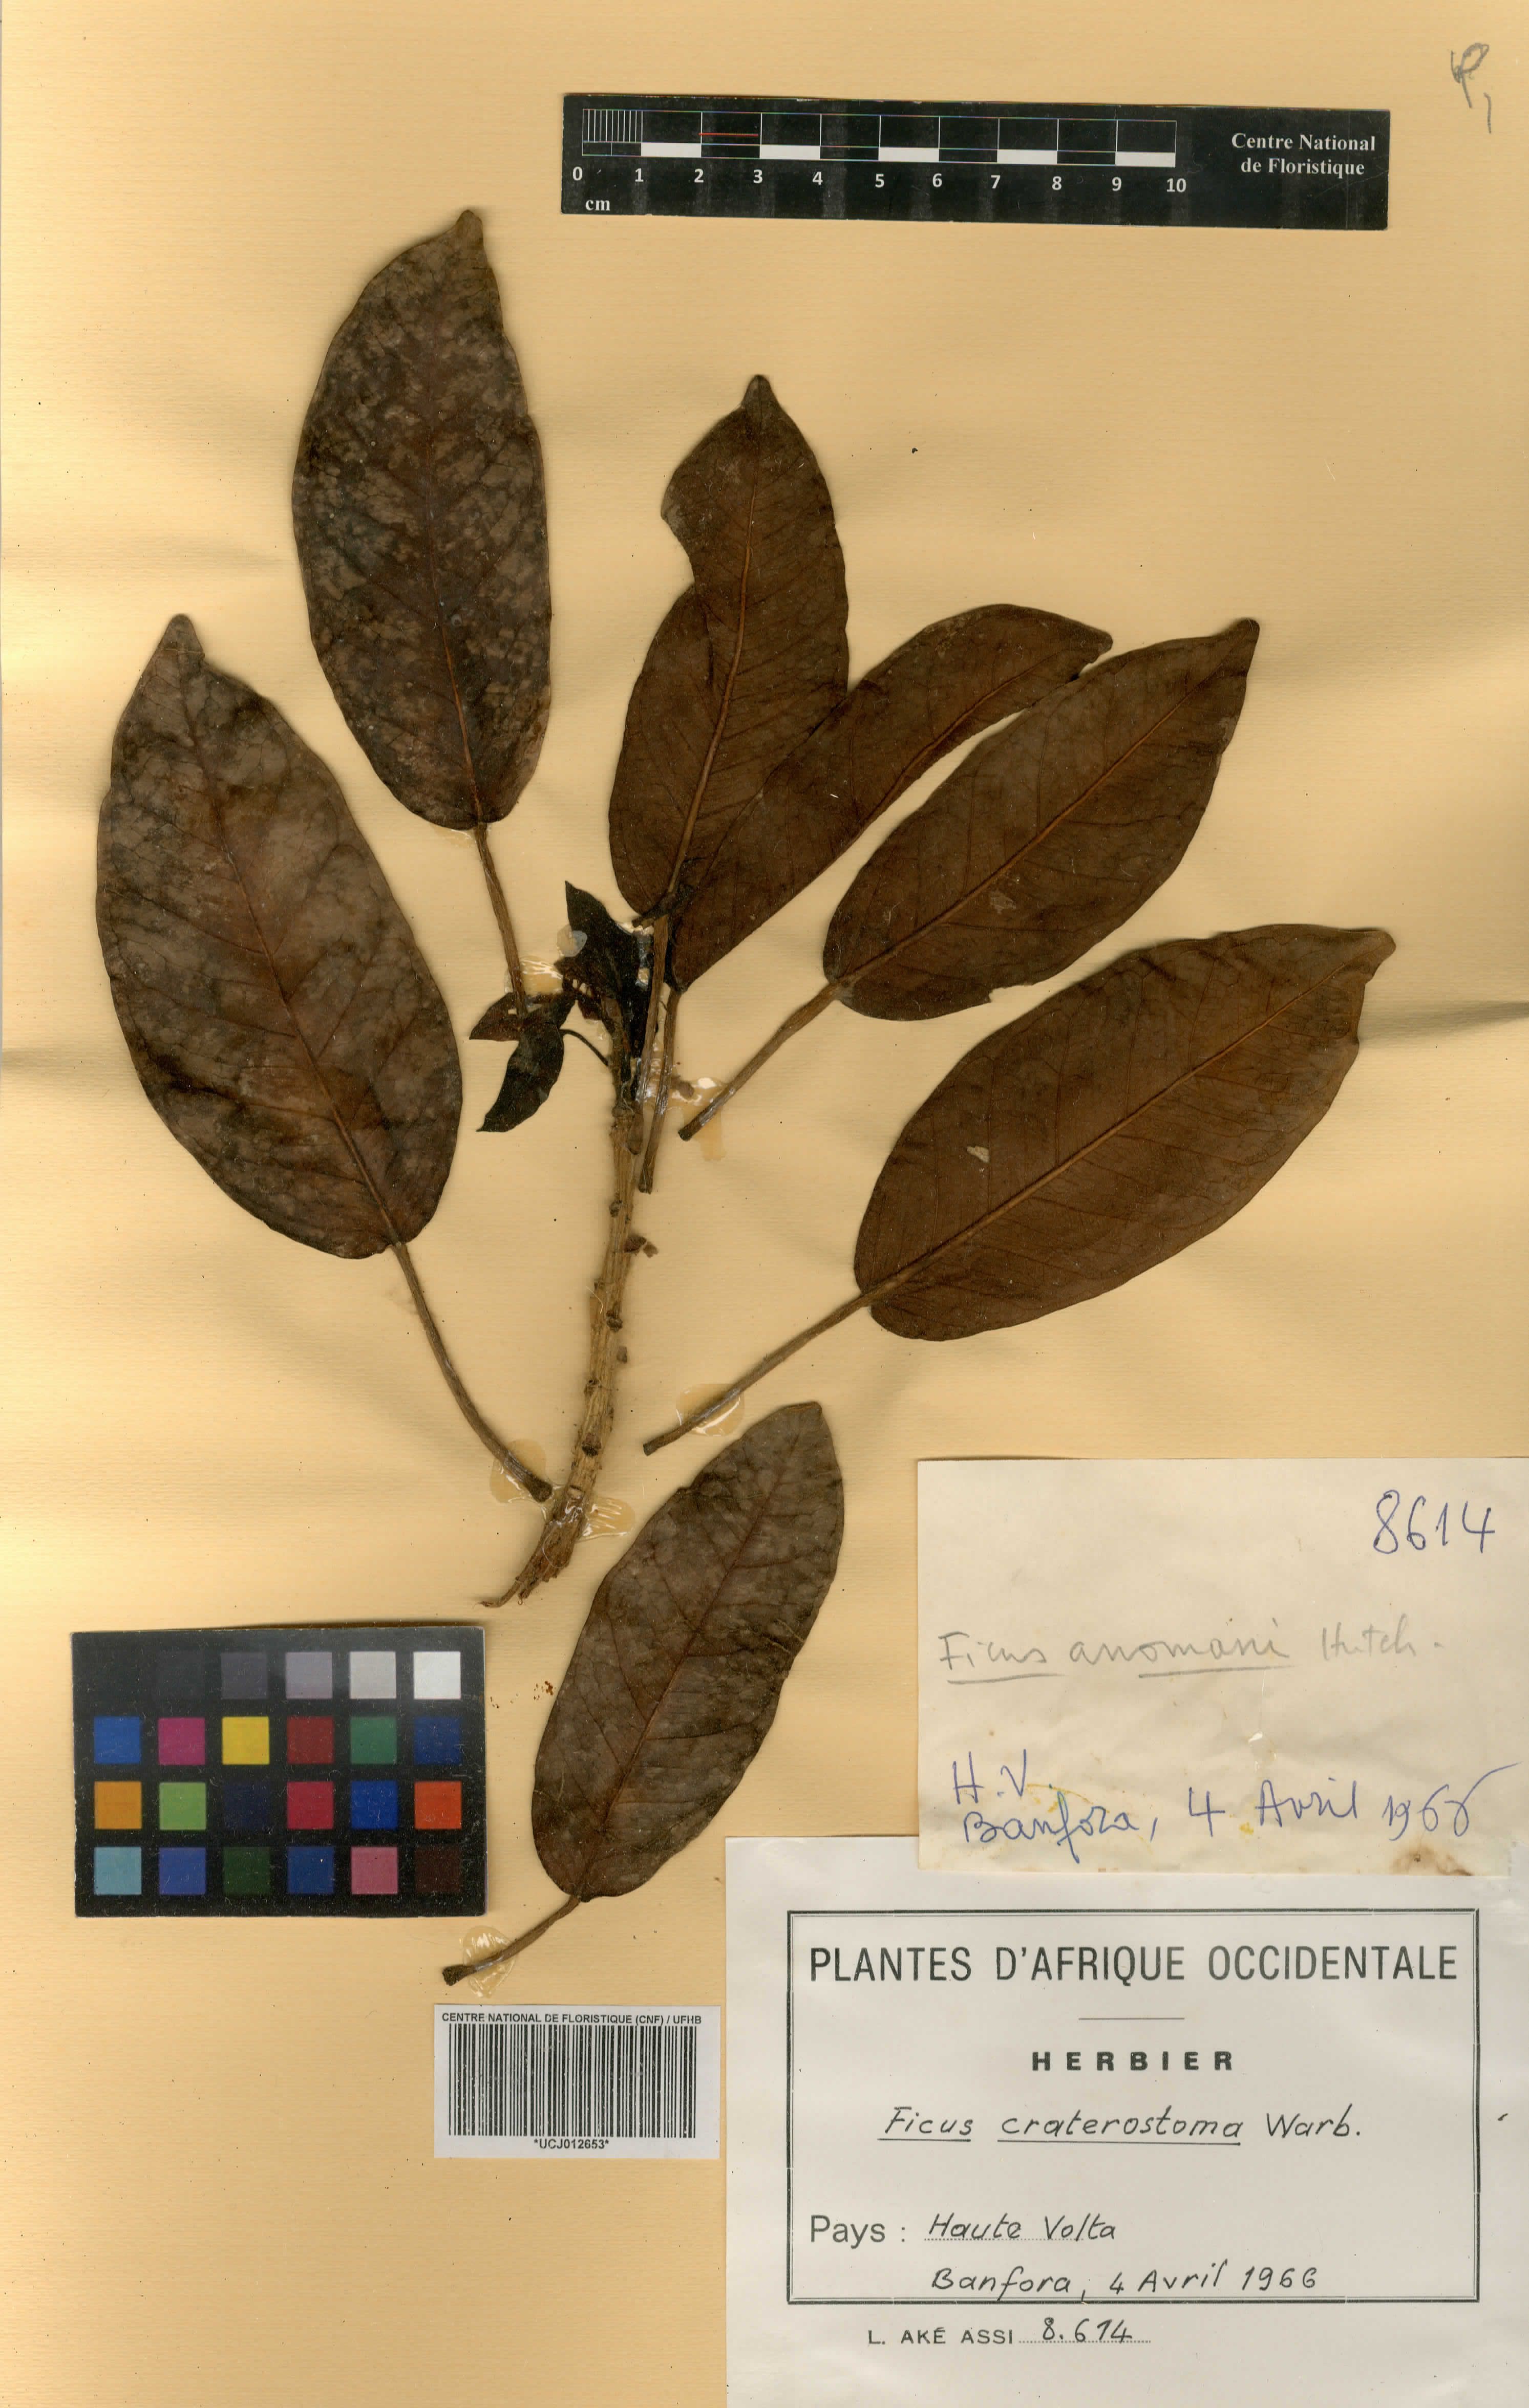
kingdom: Plantae
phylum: Tracheophyta
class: Magnoliopsida
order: Rosales
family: Moraceae
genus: Ficus
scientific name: Ficus craterostoma
